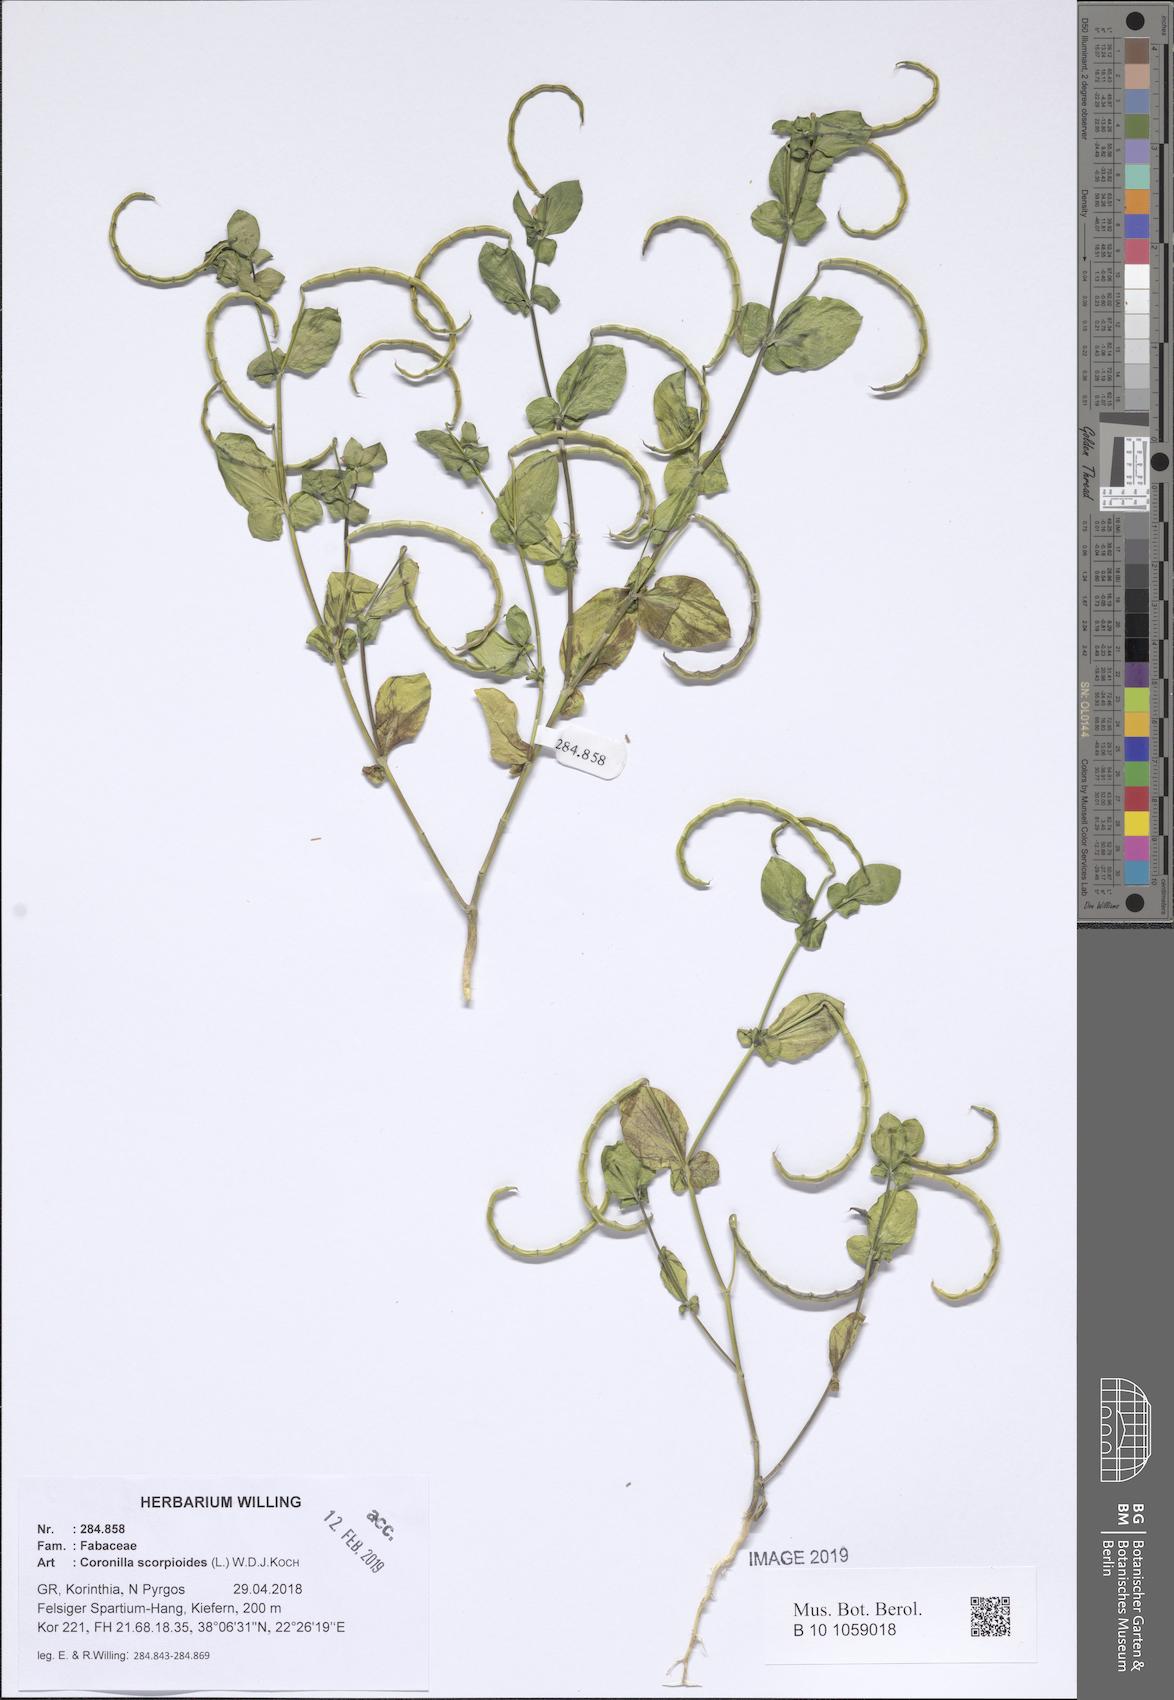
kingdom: Plantae
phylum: Tracheophyta
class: Magnoliopsida
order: Fabales
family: Fabaceae
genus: Coronilla
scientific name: Coronilla scorpioides
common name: Annual scorpion-vetch
